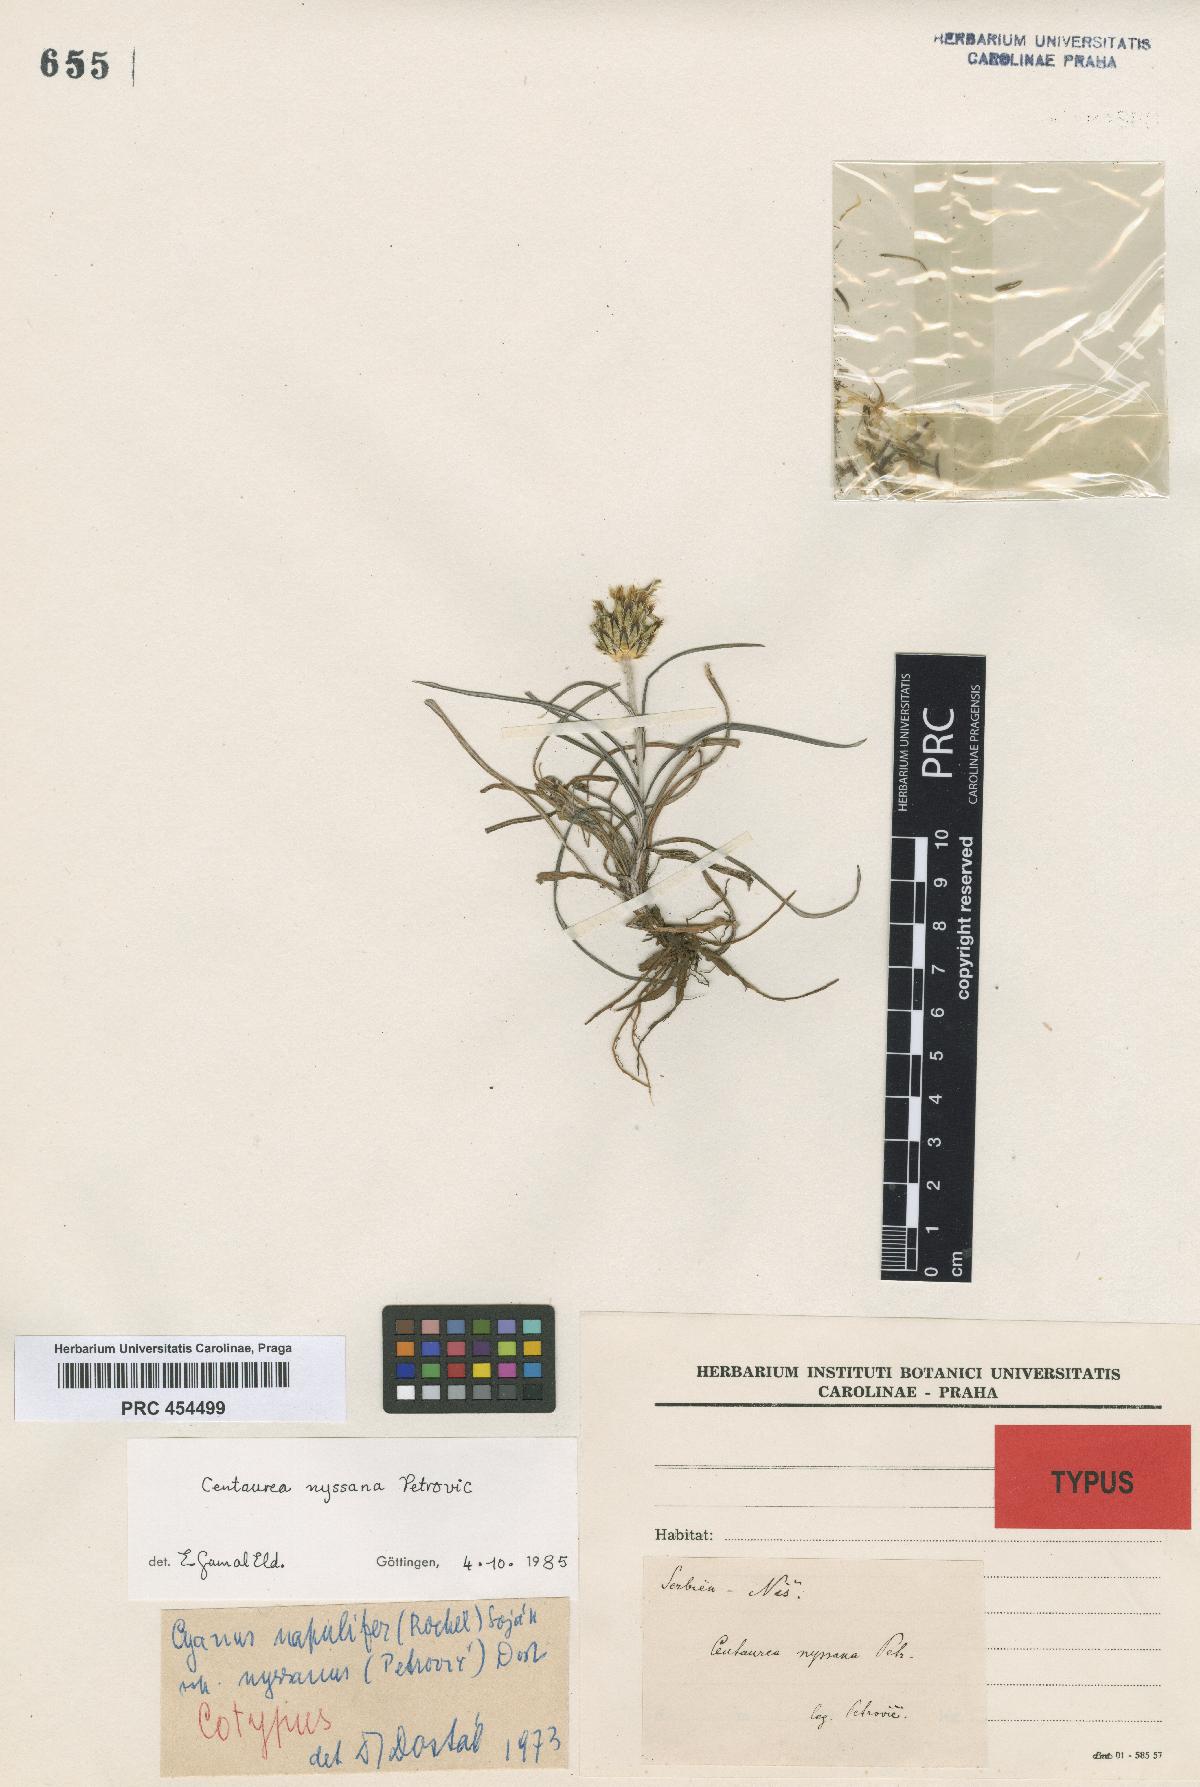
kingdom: Plantae
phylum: Tracheophyta
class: Magnoliopsida
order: Asterales
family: Asteraceae
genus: Centaurea
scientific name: Centaurea nissana
